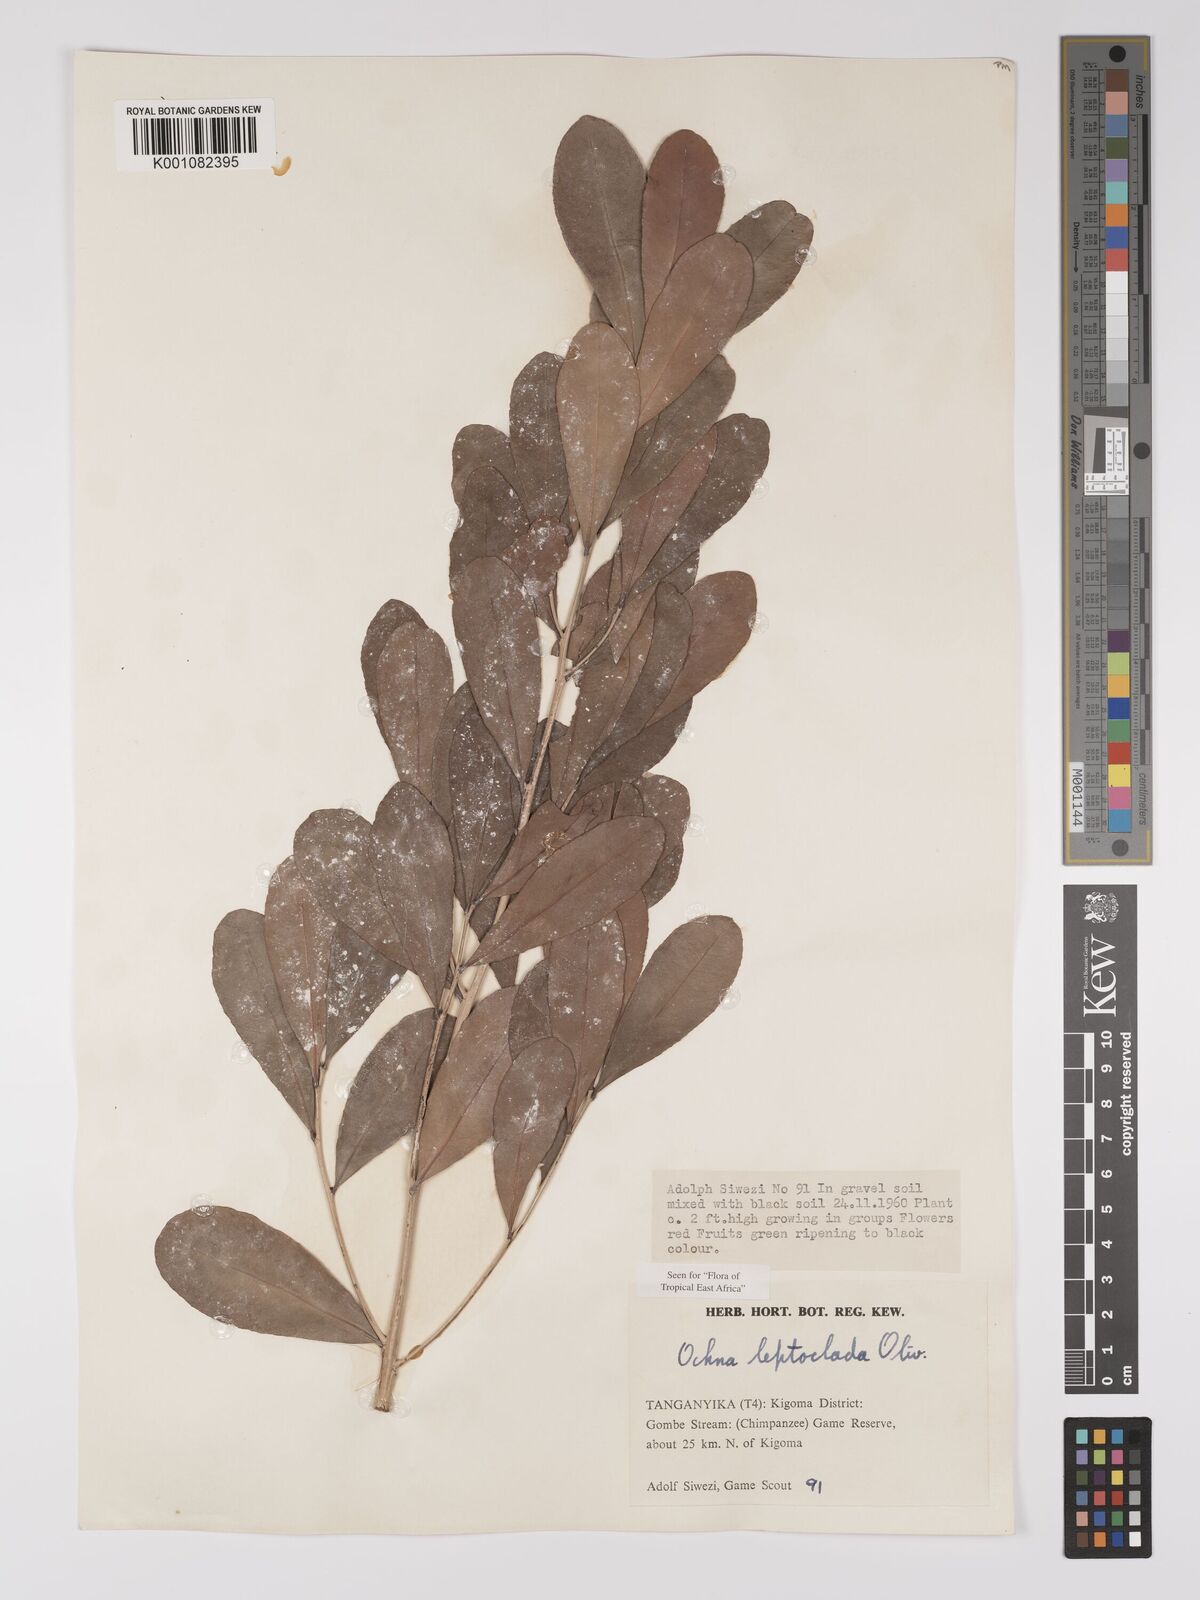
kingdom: Plantae
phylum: Tracheophyta
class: Magnoliopsida
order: Malpighiales
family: Ochnaceae
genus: Ochna
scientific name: Ochna leptoclada
